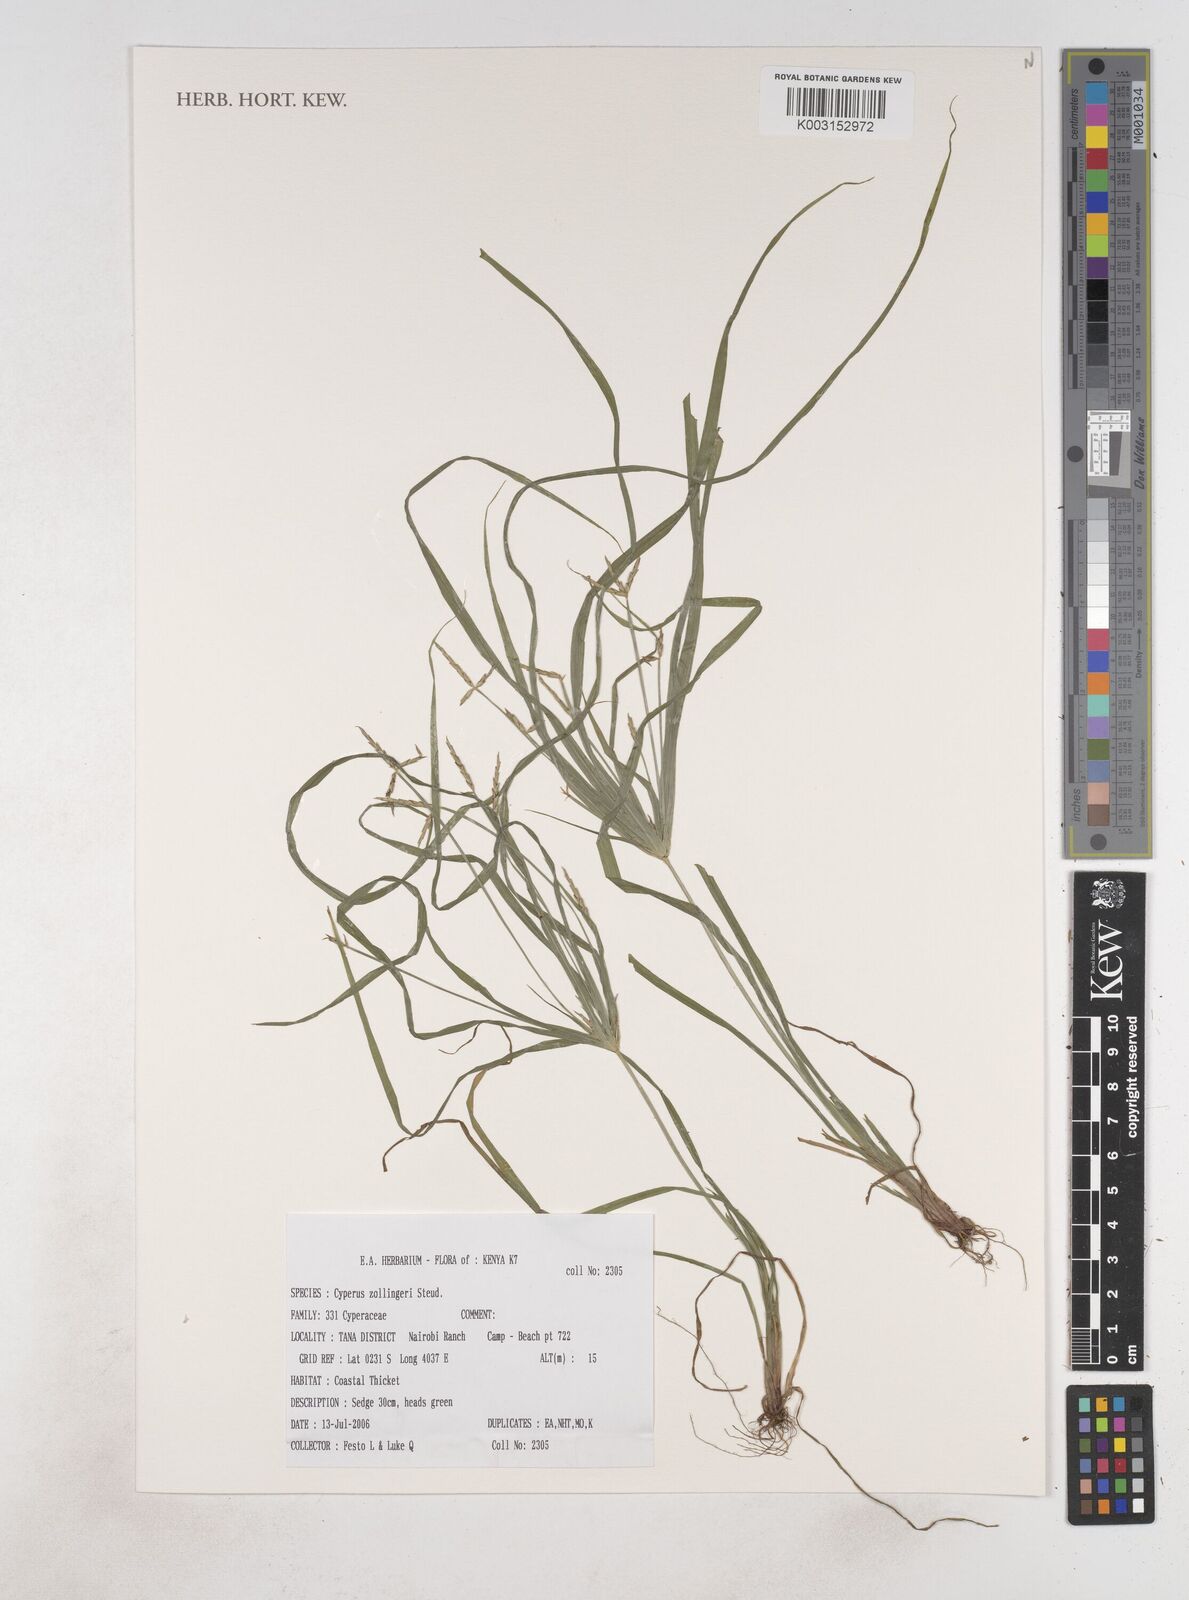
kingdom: Plantae
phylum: Tracheophyta
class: Liliopsida
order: Poales
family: Cyperaceae
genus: Cyperus
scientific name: Cyperus zollingerioides
